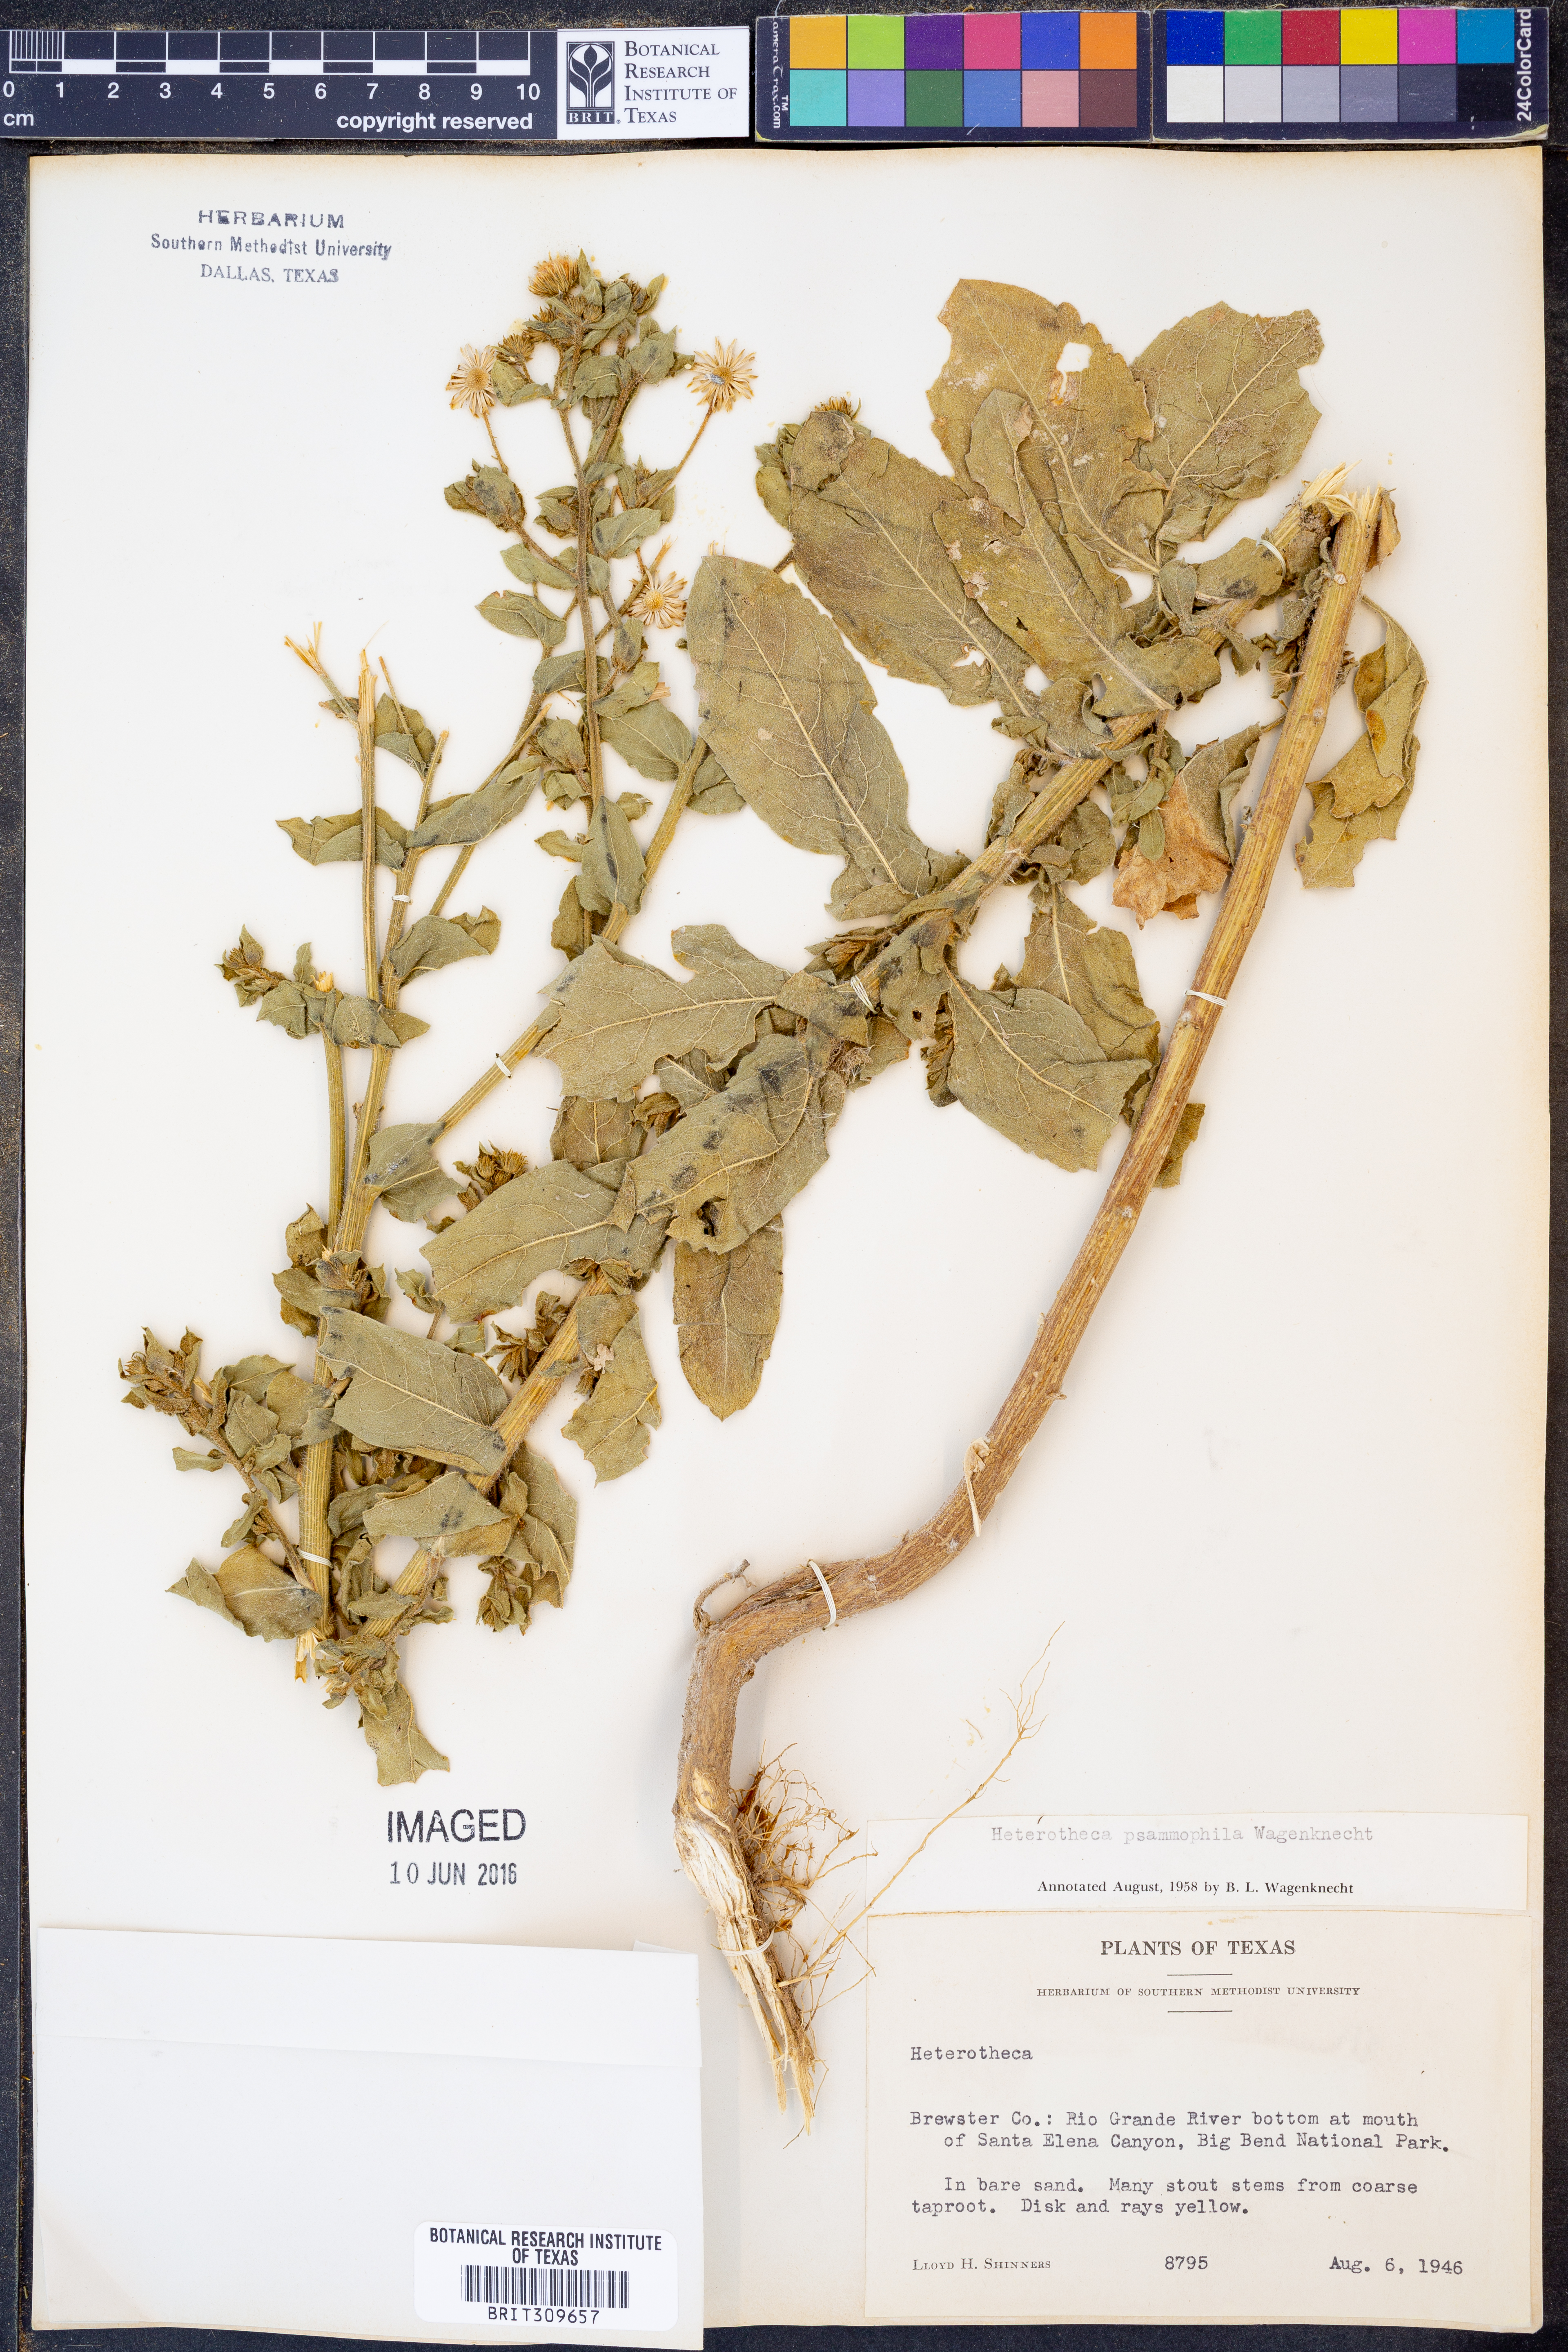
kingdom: Plantae
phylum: Tracheophyta
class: Magnoliopsida
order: Asterales
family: Asteraceae
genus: Heterotheca
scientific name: Heterotheca psammophila
